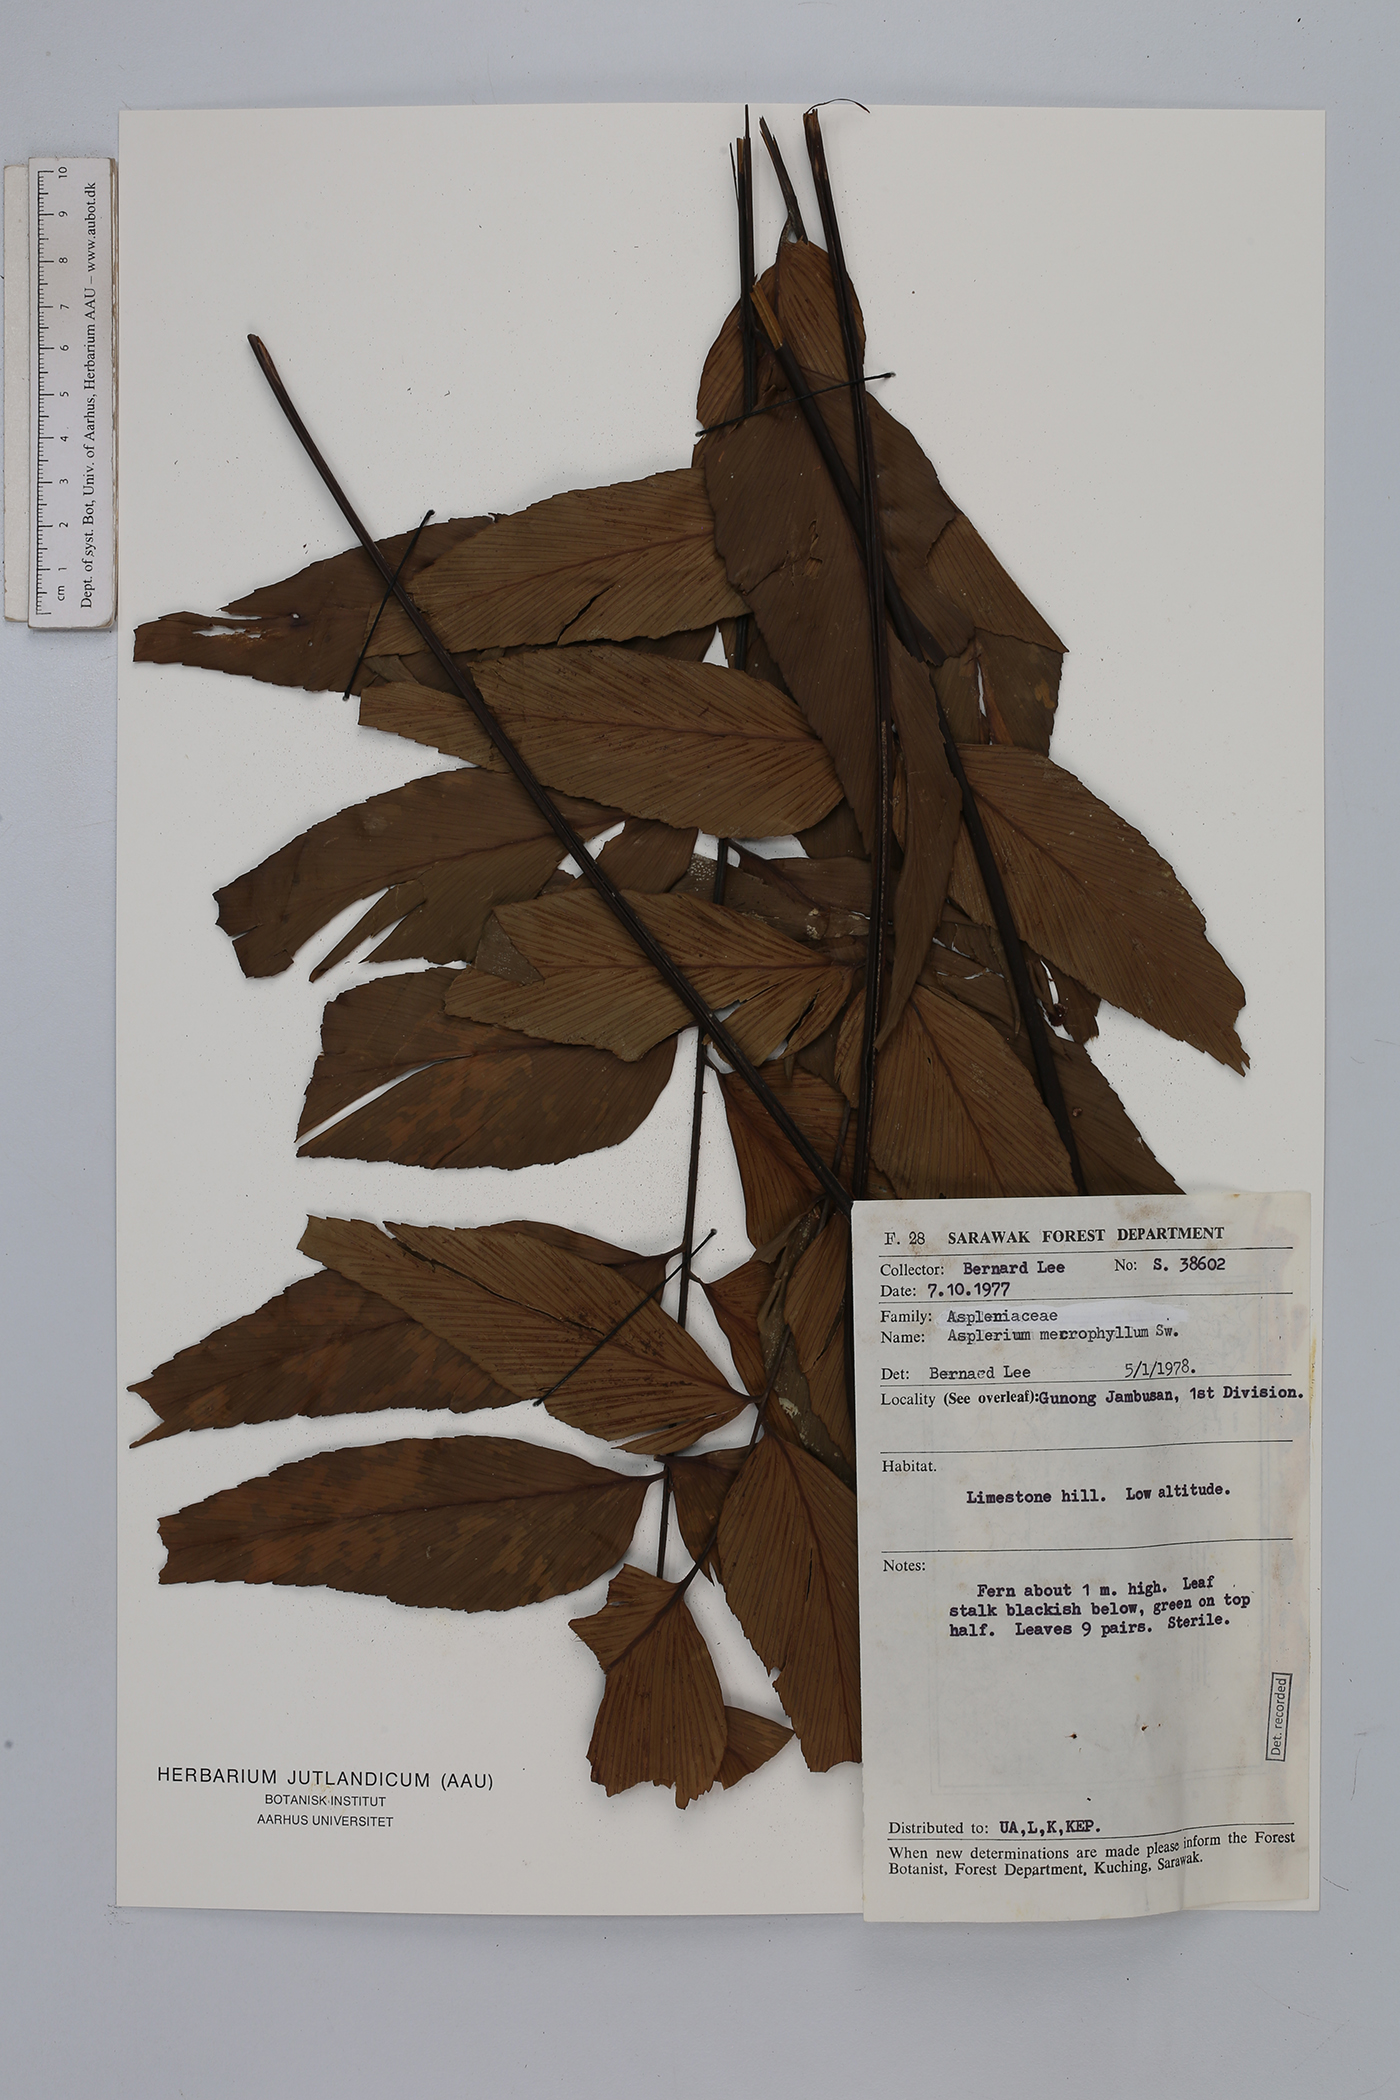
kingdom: Plantae
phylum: Tracheophyta
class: Polypodiopsida
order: Polypodiales
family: Aspleniaceae
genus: Asplenium
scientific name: Asplenium macrophyllum
